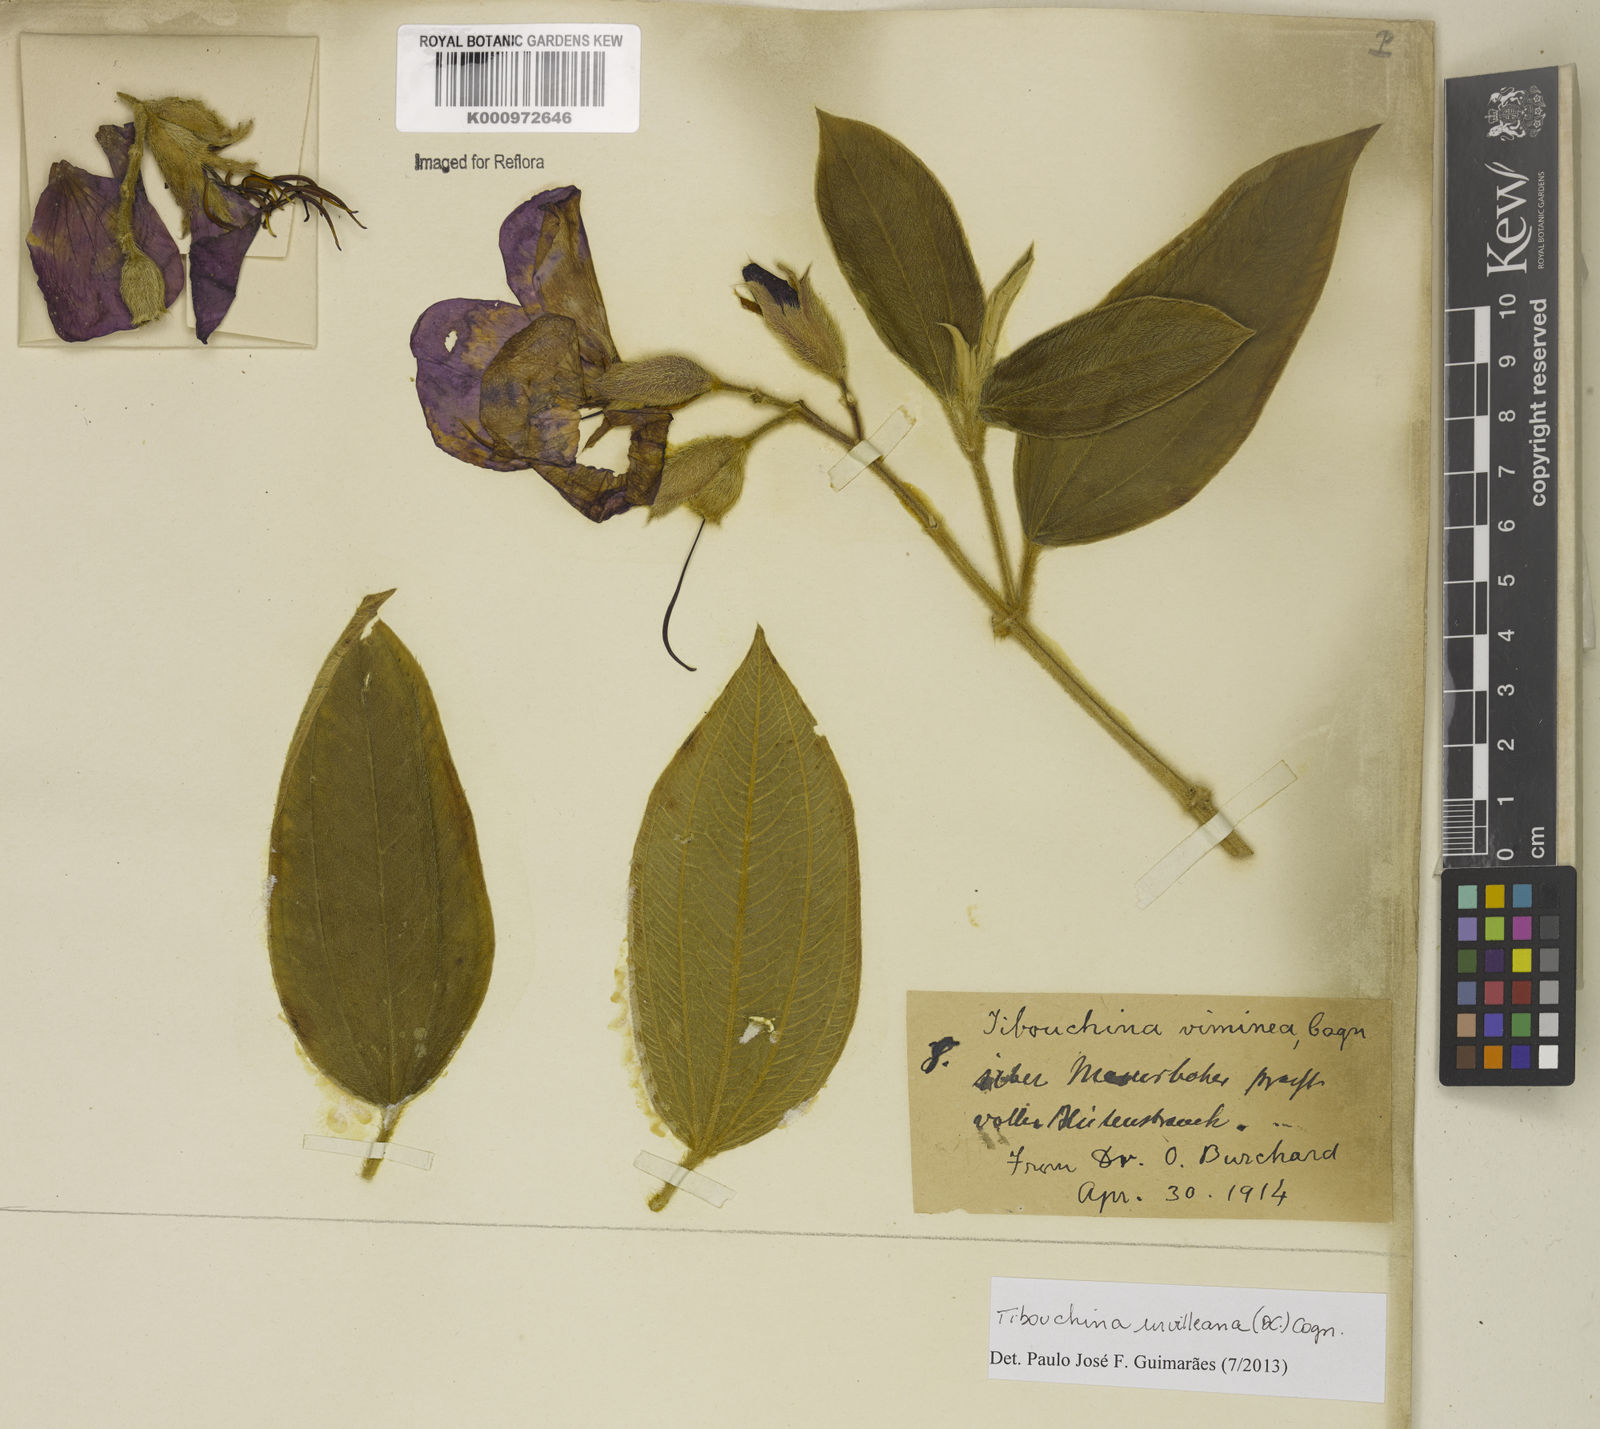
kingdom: Plantae
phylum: Tracheophyta
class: Magnoliopsida
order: Myrtales
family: Melastomataceae
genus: Pleroma
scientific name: Pleroma urvilleanum
